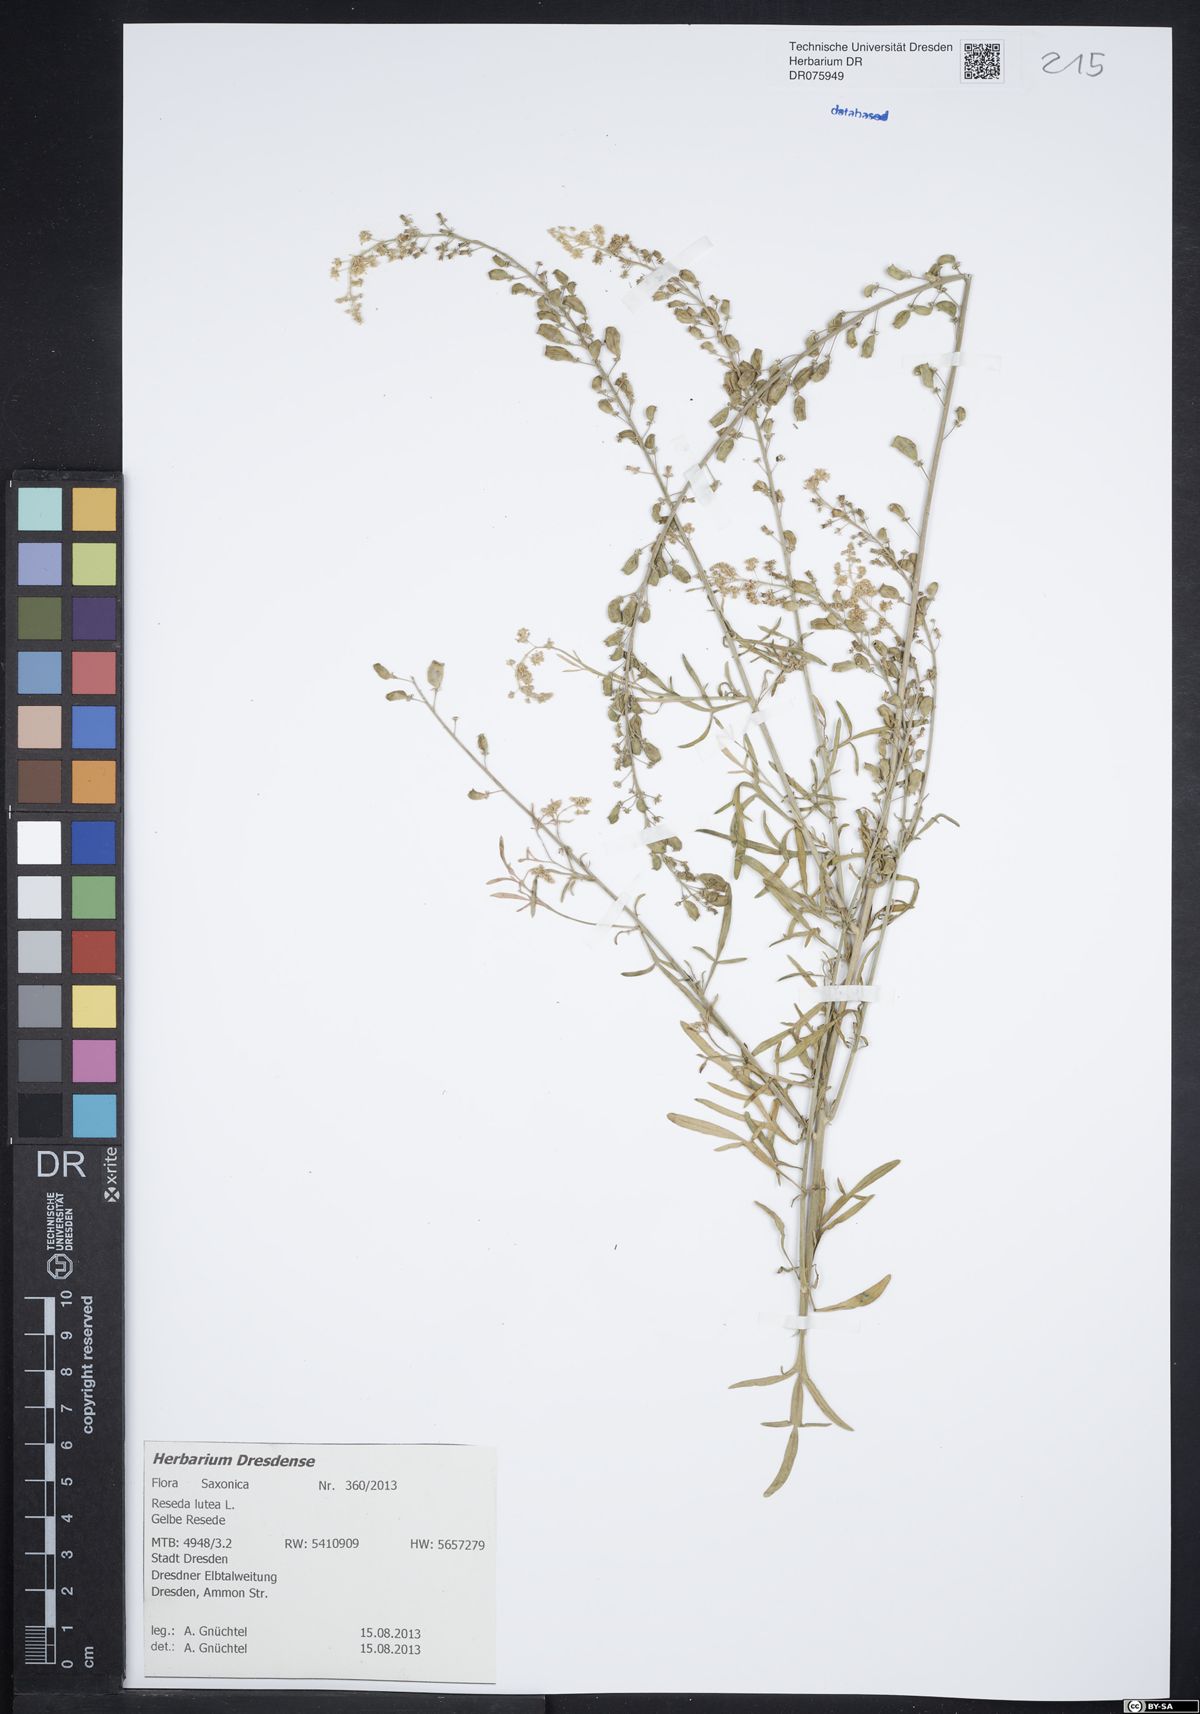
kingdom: Plantae
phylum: Tracheophyta
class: Magnoliopsida
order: Brassicales
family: Resedaceae
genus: Reseda
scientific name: Reseda lutea
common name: Wild mignonette
